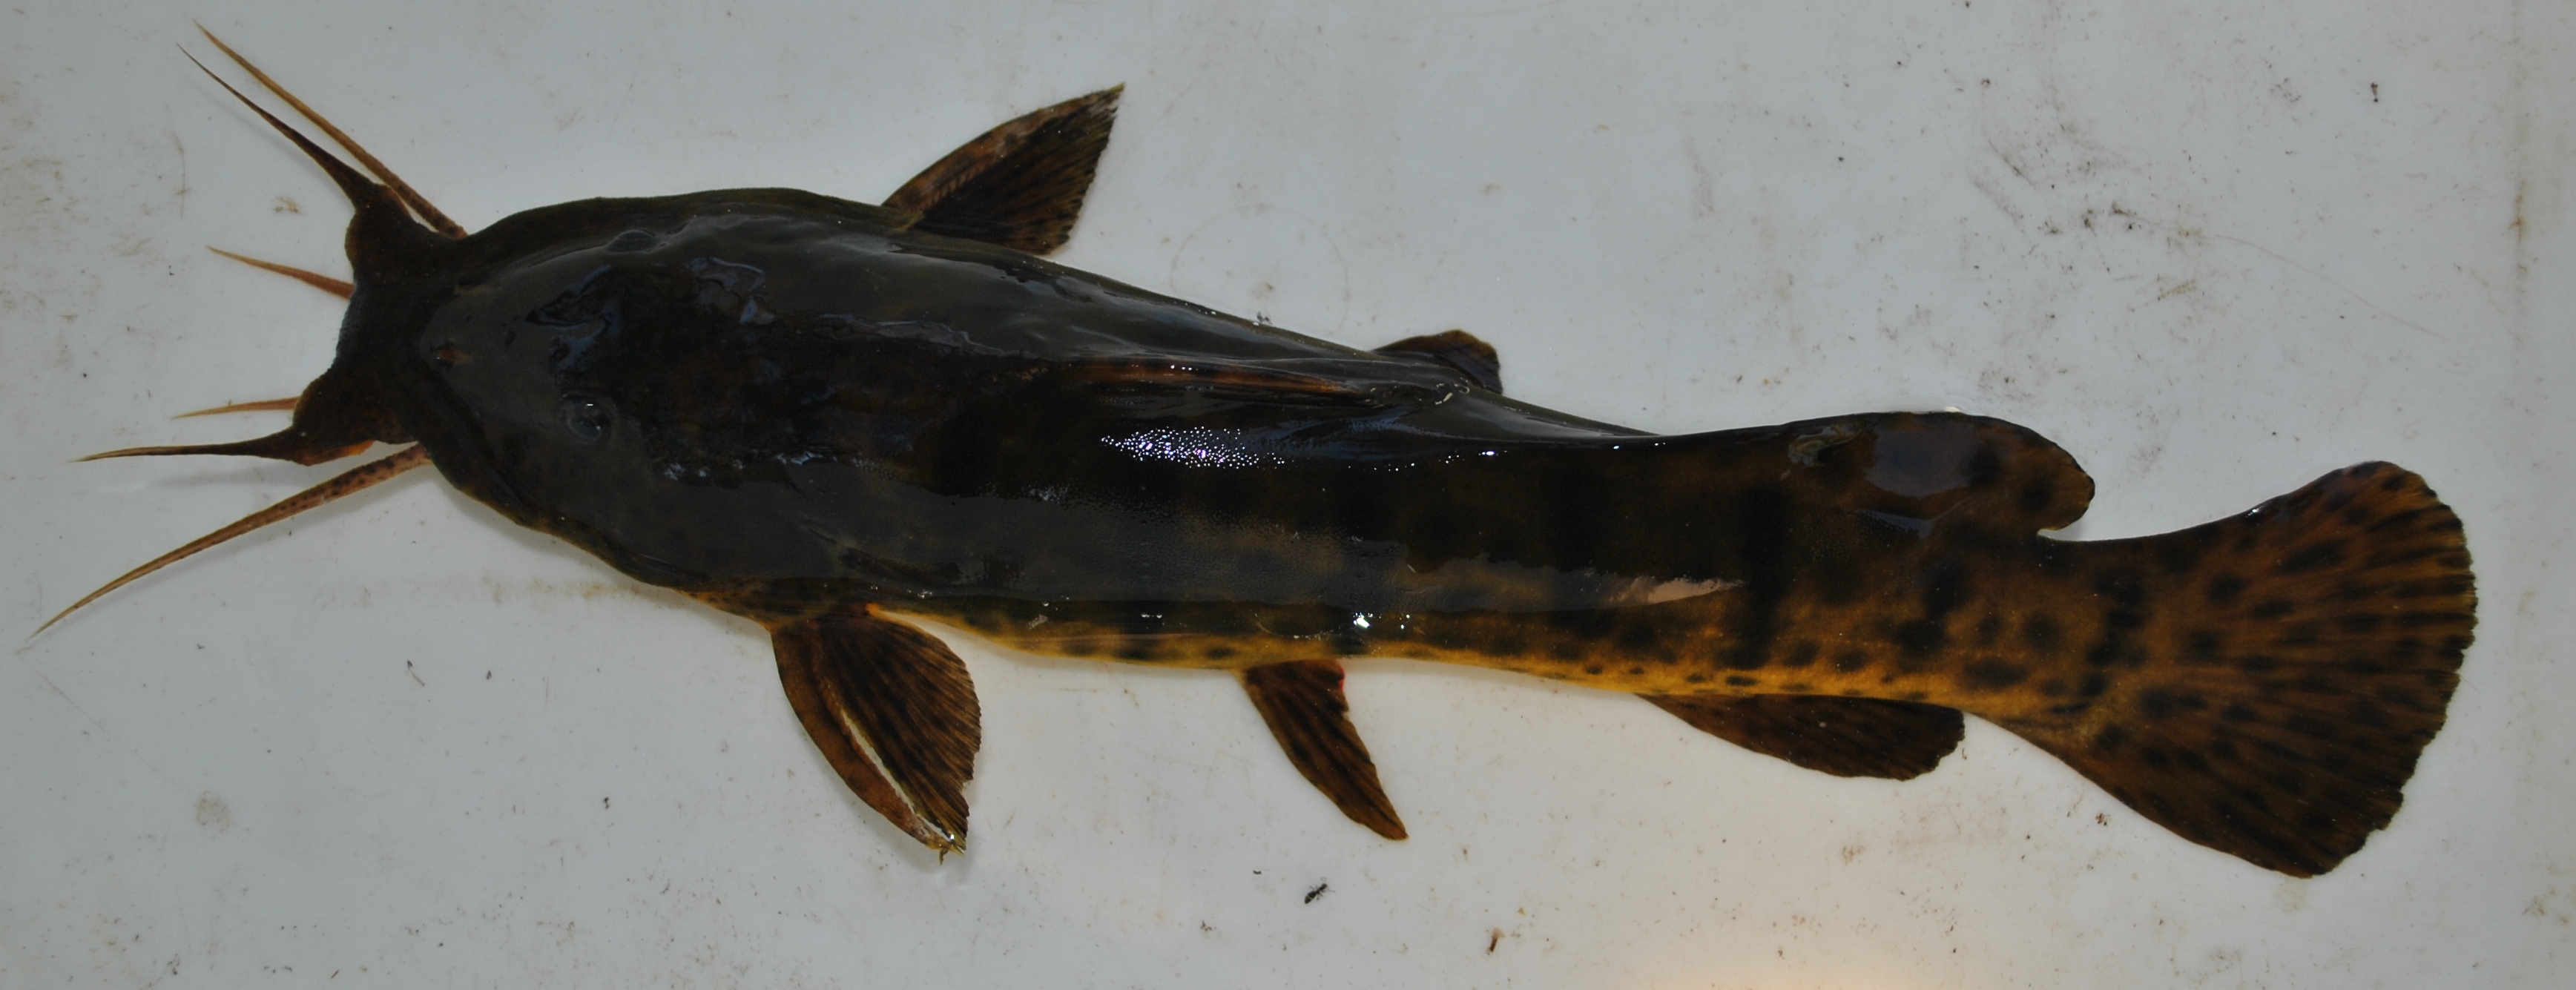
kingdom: Animalia
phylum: Chordata
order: Siluriformes
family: Claroteidae
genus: Parauchenoglanis
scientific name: Parauchenoglanis ngamensis
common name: Zambezi grunter
